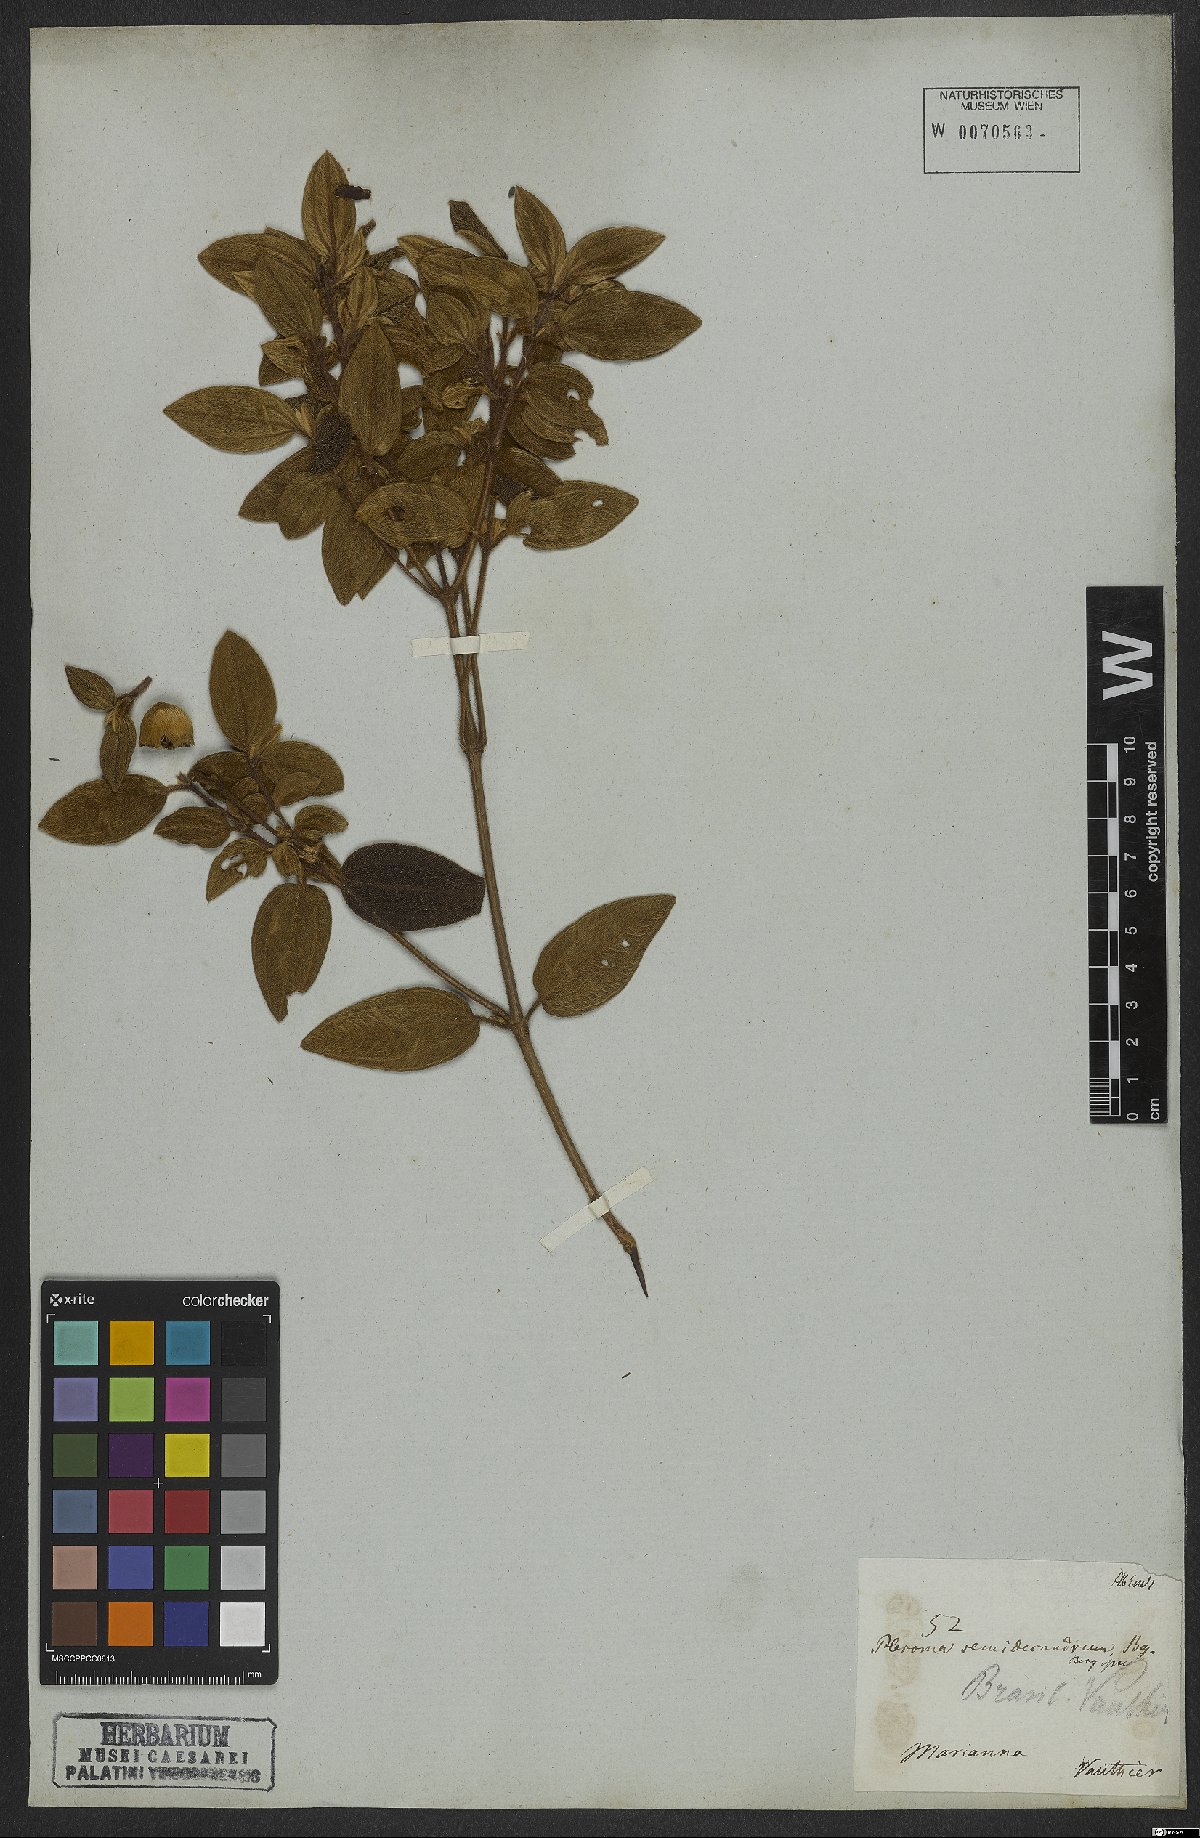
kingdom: Plantae
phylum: Tracheophyta
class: Magnoliopsida
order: Myrtales
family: Melastomataceae
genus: Pleroma
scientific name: Pleroma semidecandrum
